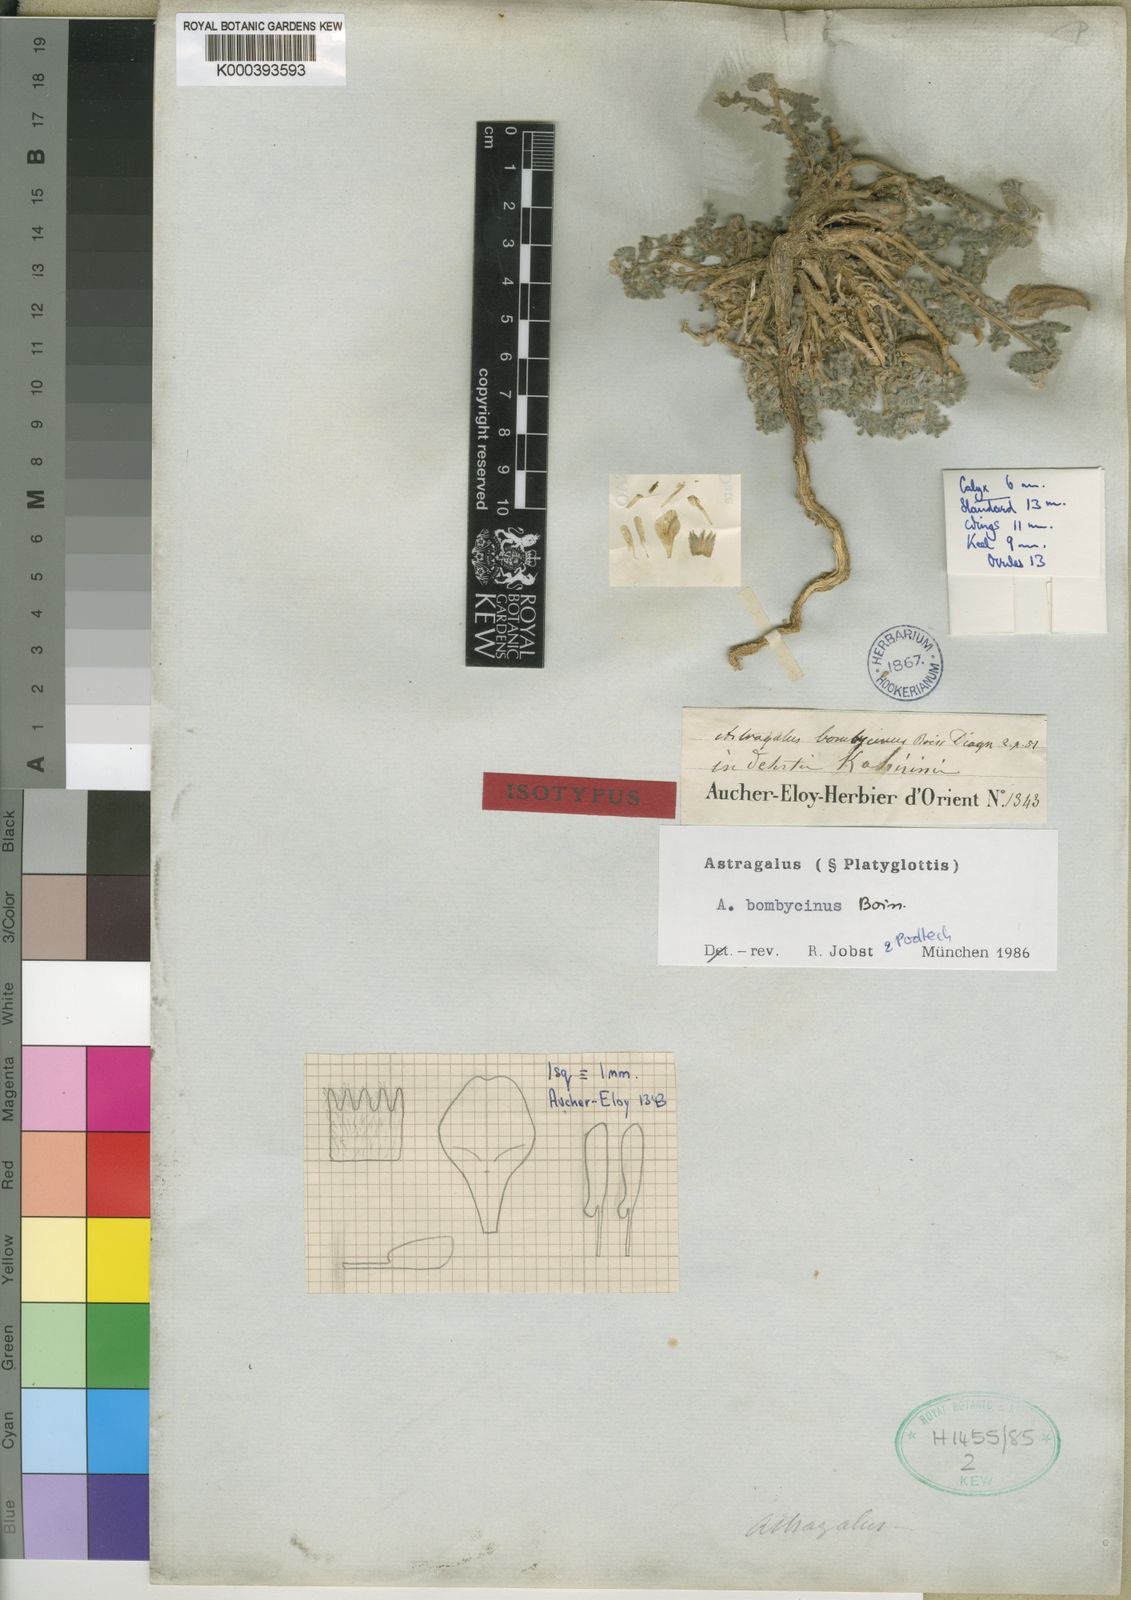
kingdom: Plantae
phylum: Tracheophyta
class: Magnoliopsida
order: Fabales
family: Fabaceae
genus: Astragalus
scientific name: Astragalus bombycinus
